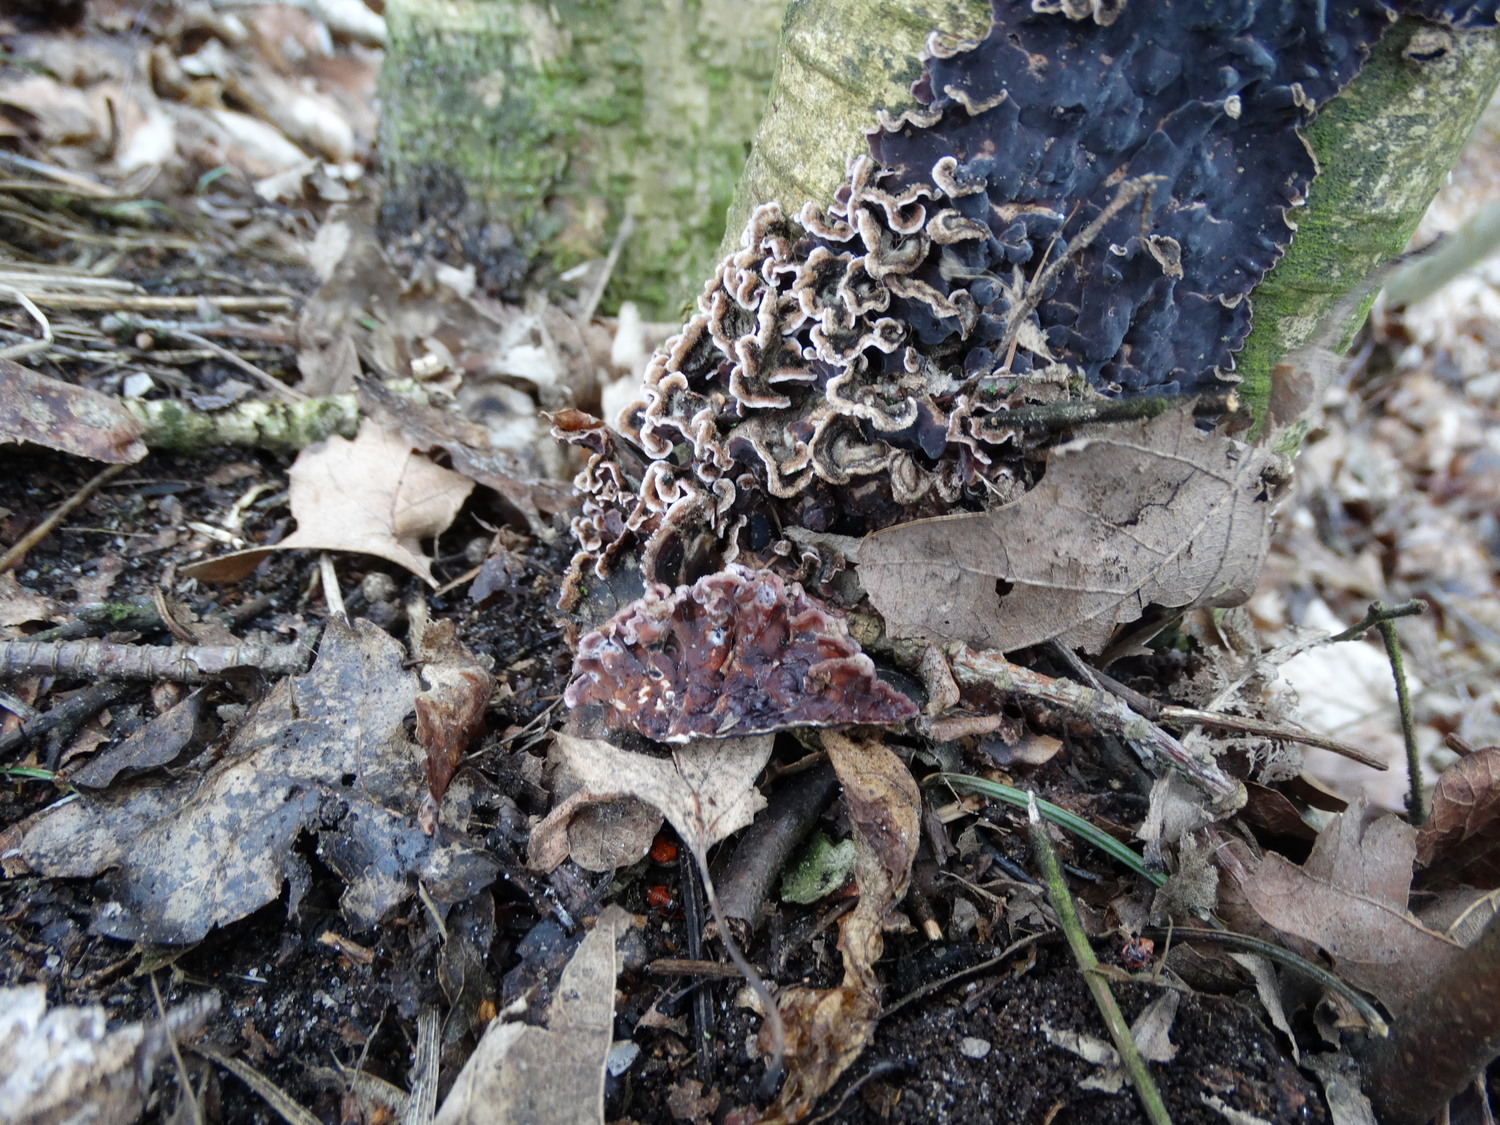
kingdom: Fungi
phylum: Basidiomycota
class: Agaricomycetes
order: Agaricales
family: Cyphellaceae
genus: Chondrostereum
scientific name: Chondrostereum purpureum
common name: purpurlædersvamp
